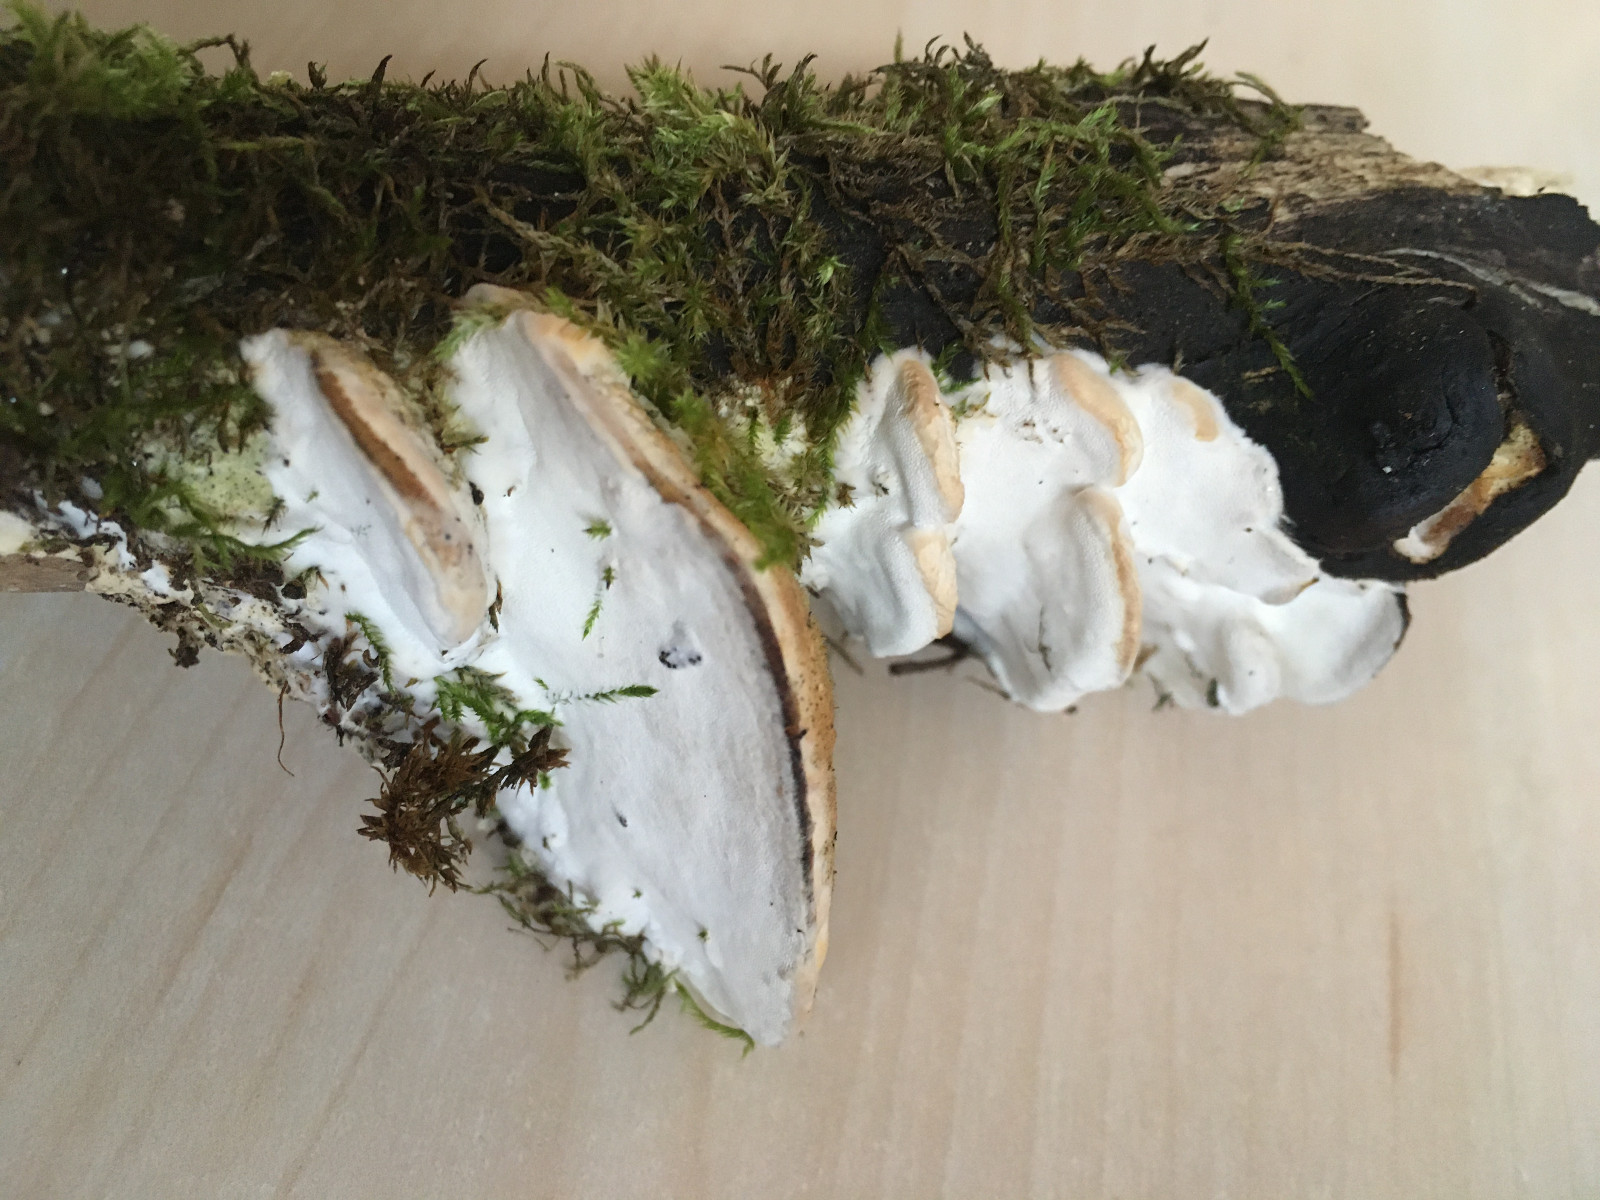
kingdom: Fungi
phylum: Basidiomycota
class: Agaricomycetes
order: Hymenochaetales
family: Oxyporaceae
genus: Oxyporus
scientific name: Oxyporus populinus
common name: sammenvokset trylleporesvamp
